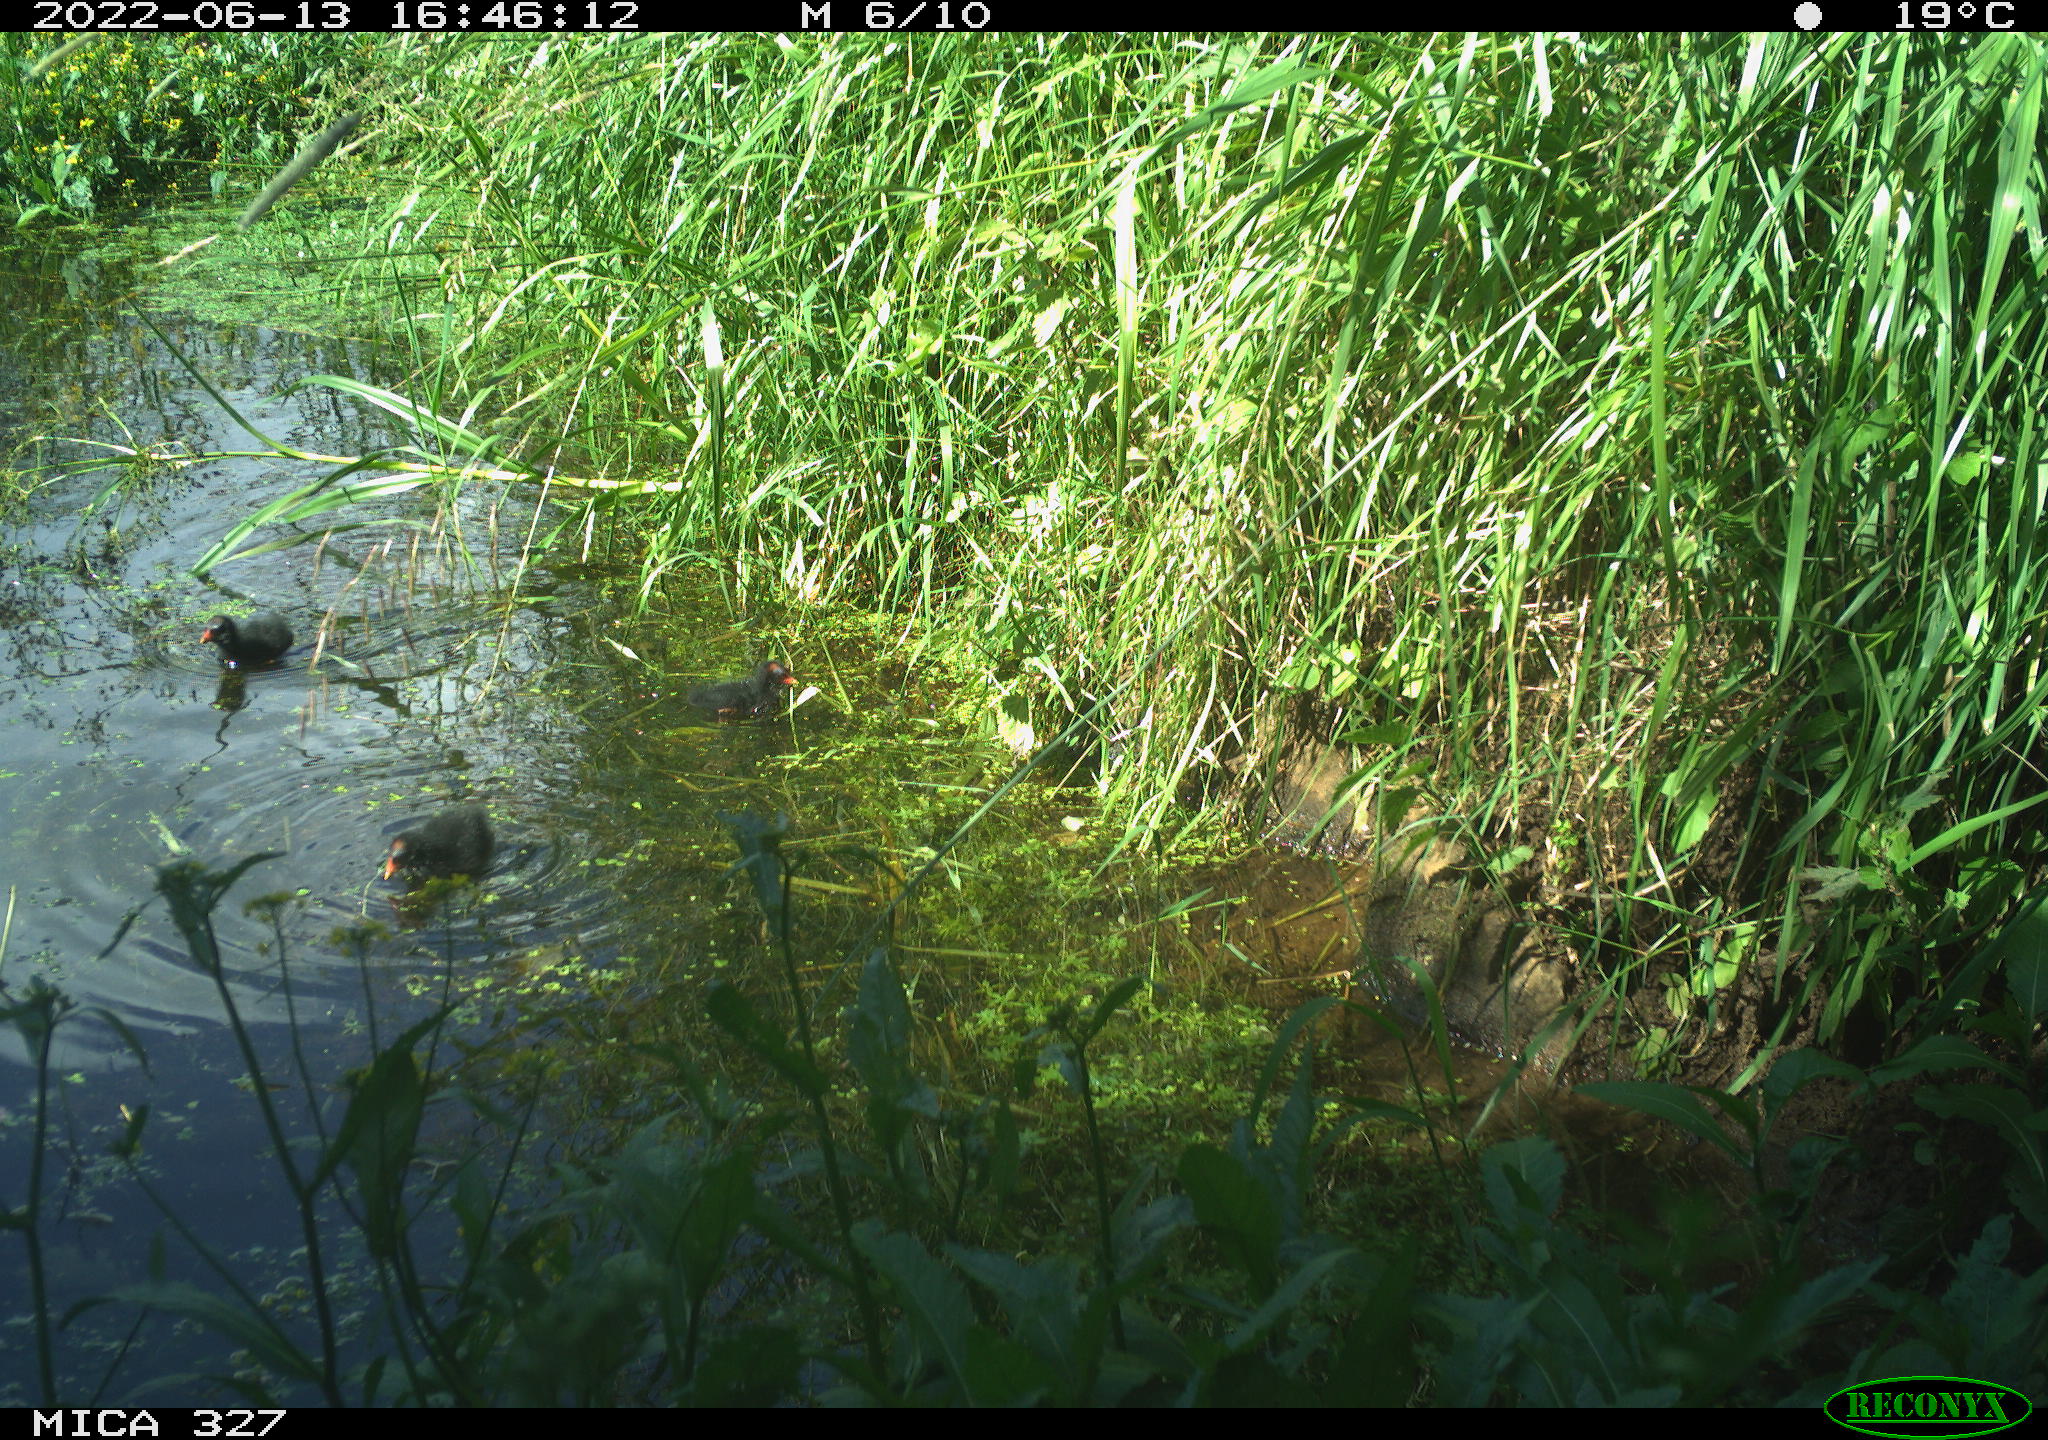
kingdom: Animalia
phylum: Chordata
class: Aves
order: Gruiformes
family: Rallidae
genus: Gallinula
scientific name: Gallinula chloropus
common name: Common moorhen
